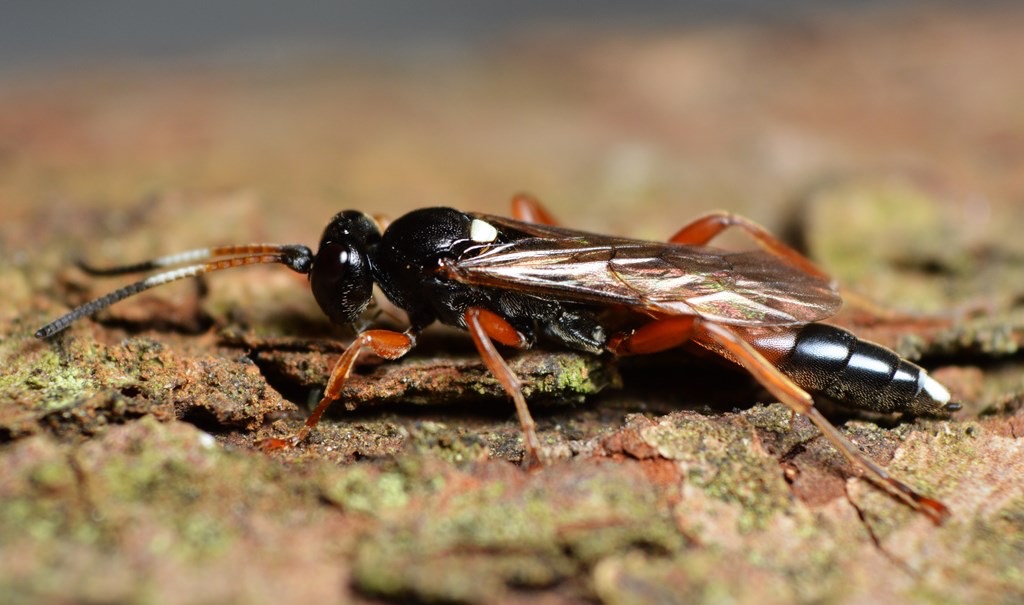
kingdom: Animalia
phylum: Arthropoda
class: Insecta
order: Hymenoptera
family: Ichneumonidae
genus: Chasmias
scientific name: Chasmias motatorius
